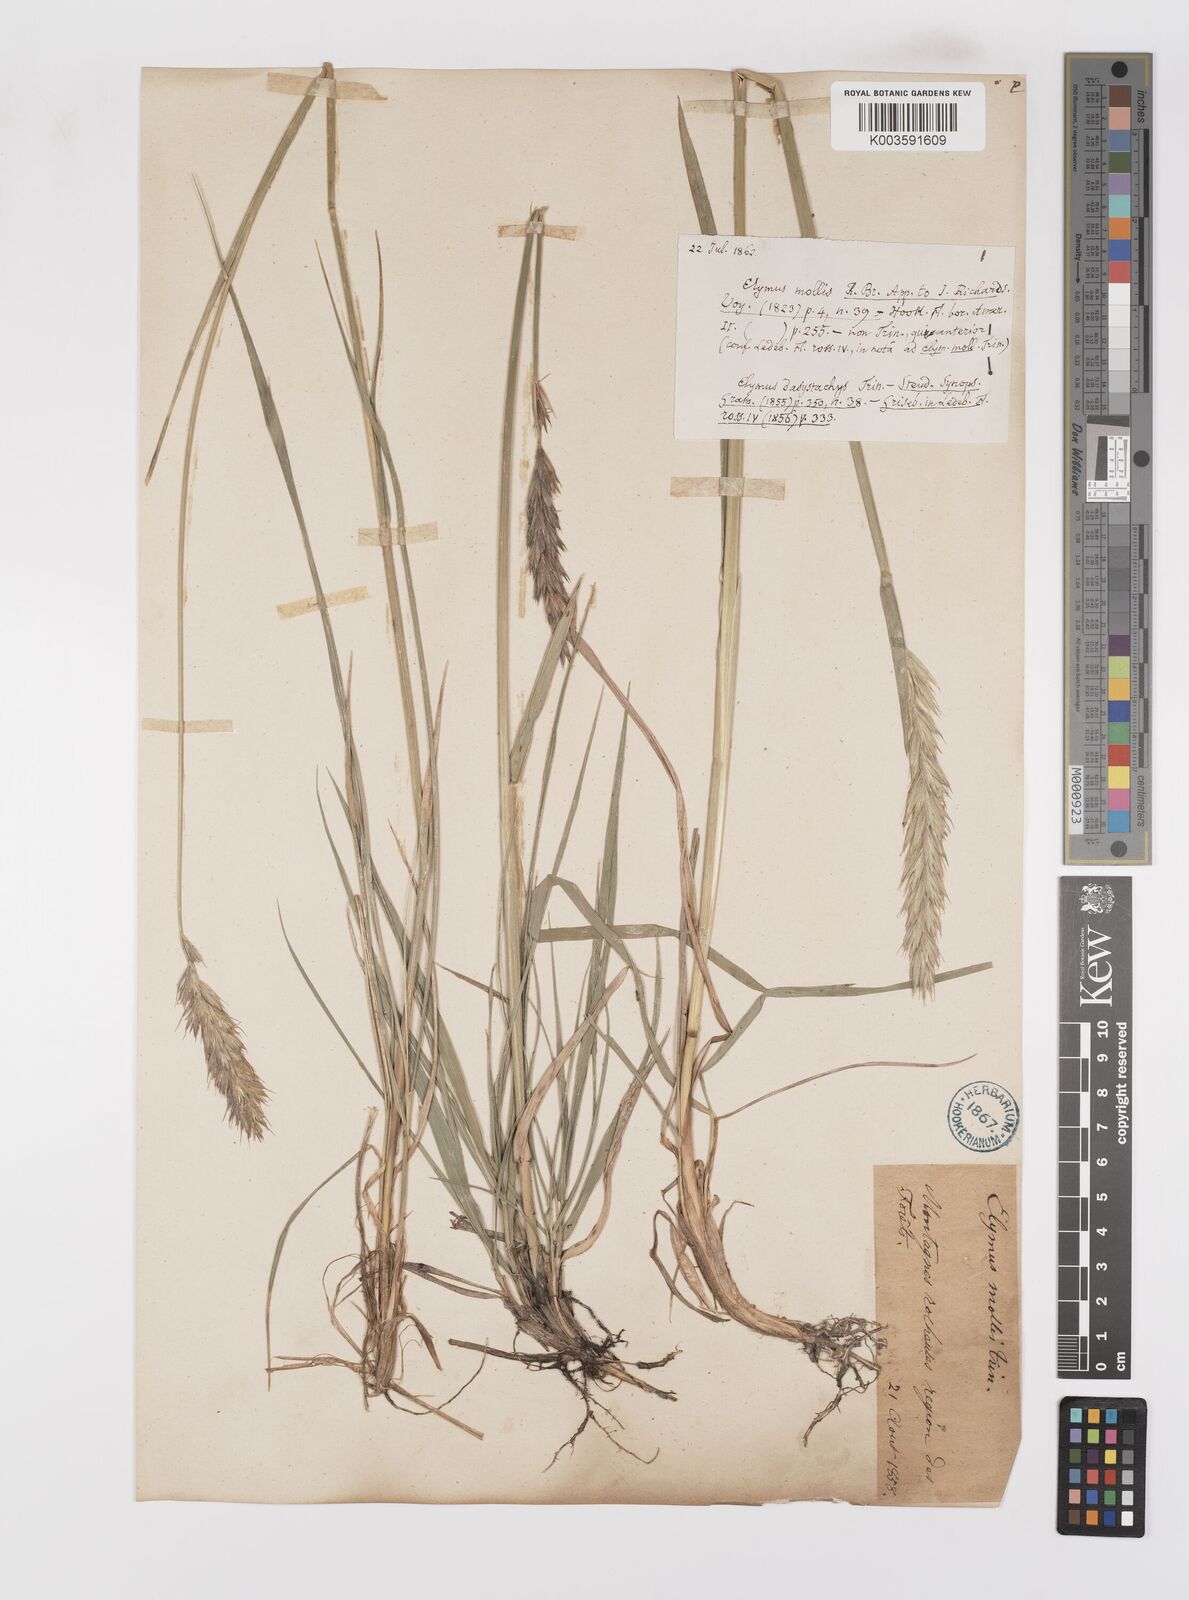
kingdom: Plantae
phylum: Tracheophyta
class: Liliopsida
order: Poales
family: Poaceae
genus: Leymus
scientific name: Leymus innovatus
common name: Boreal wild rye
